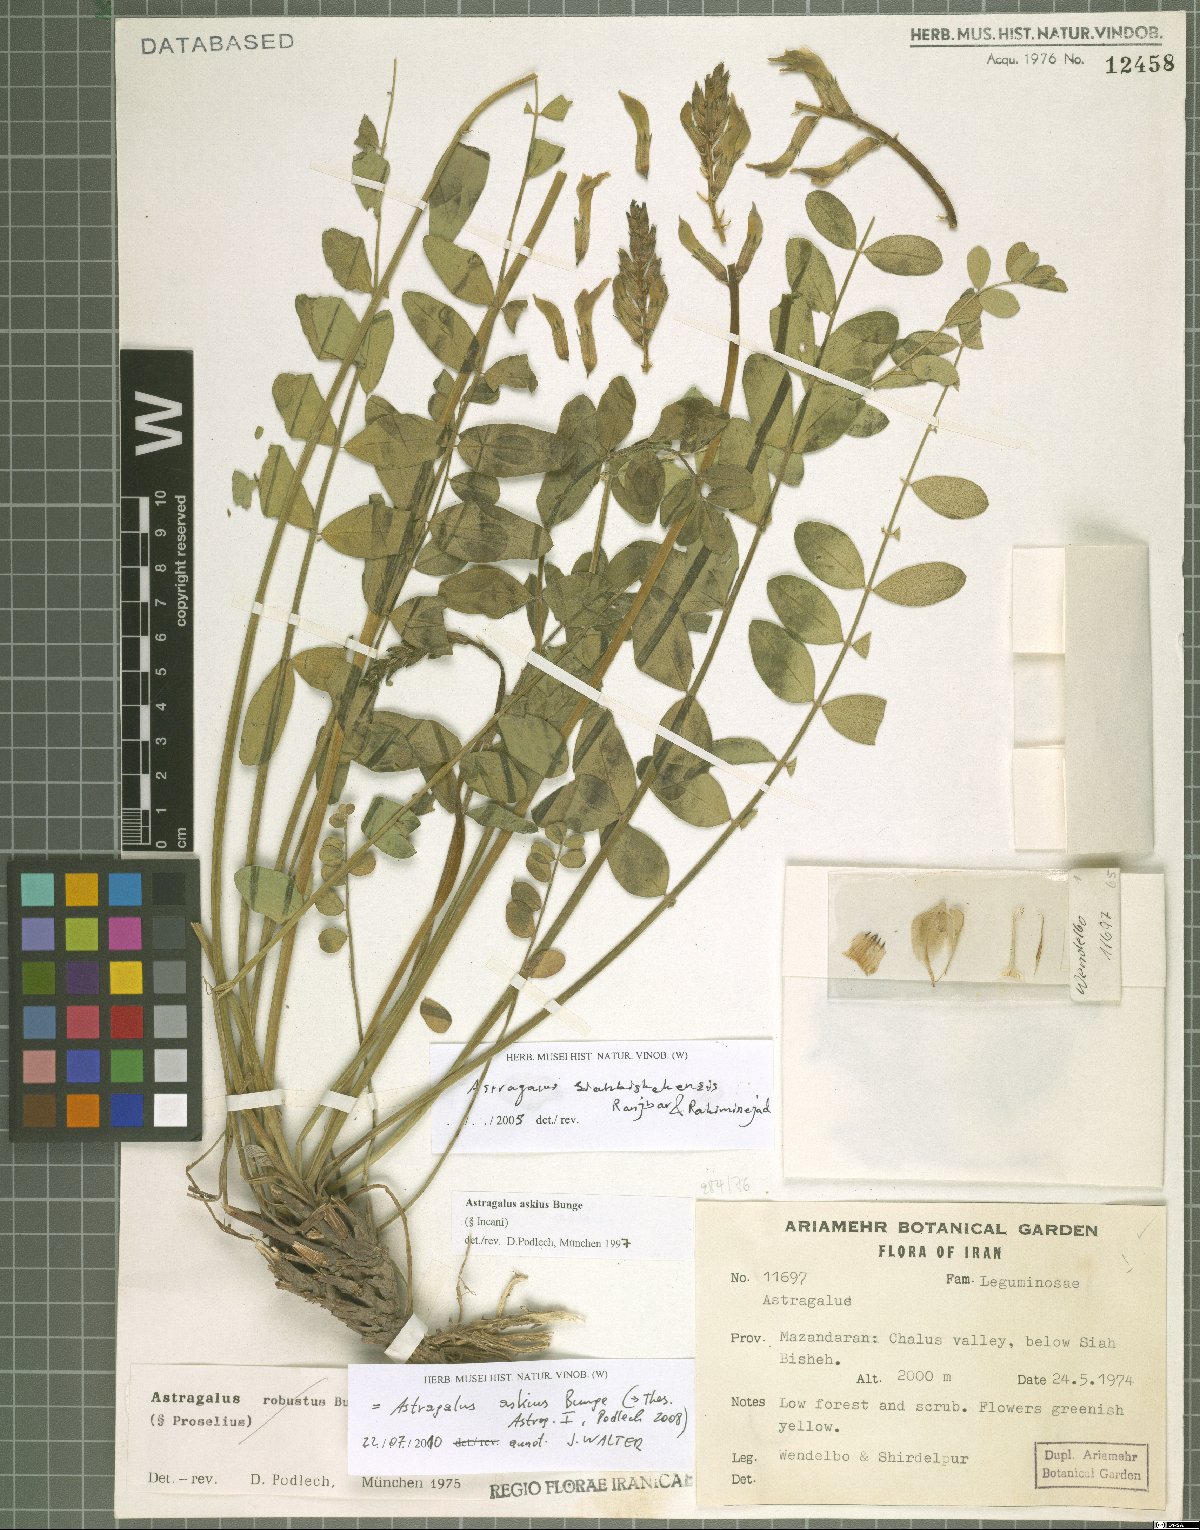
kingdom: Plantae
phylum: Tracheophyta
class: Magnoliopsida
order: Fabales
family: Fabaceae
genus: Astragalus
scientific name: Astragalus askius
